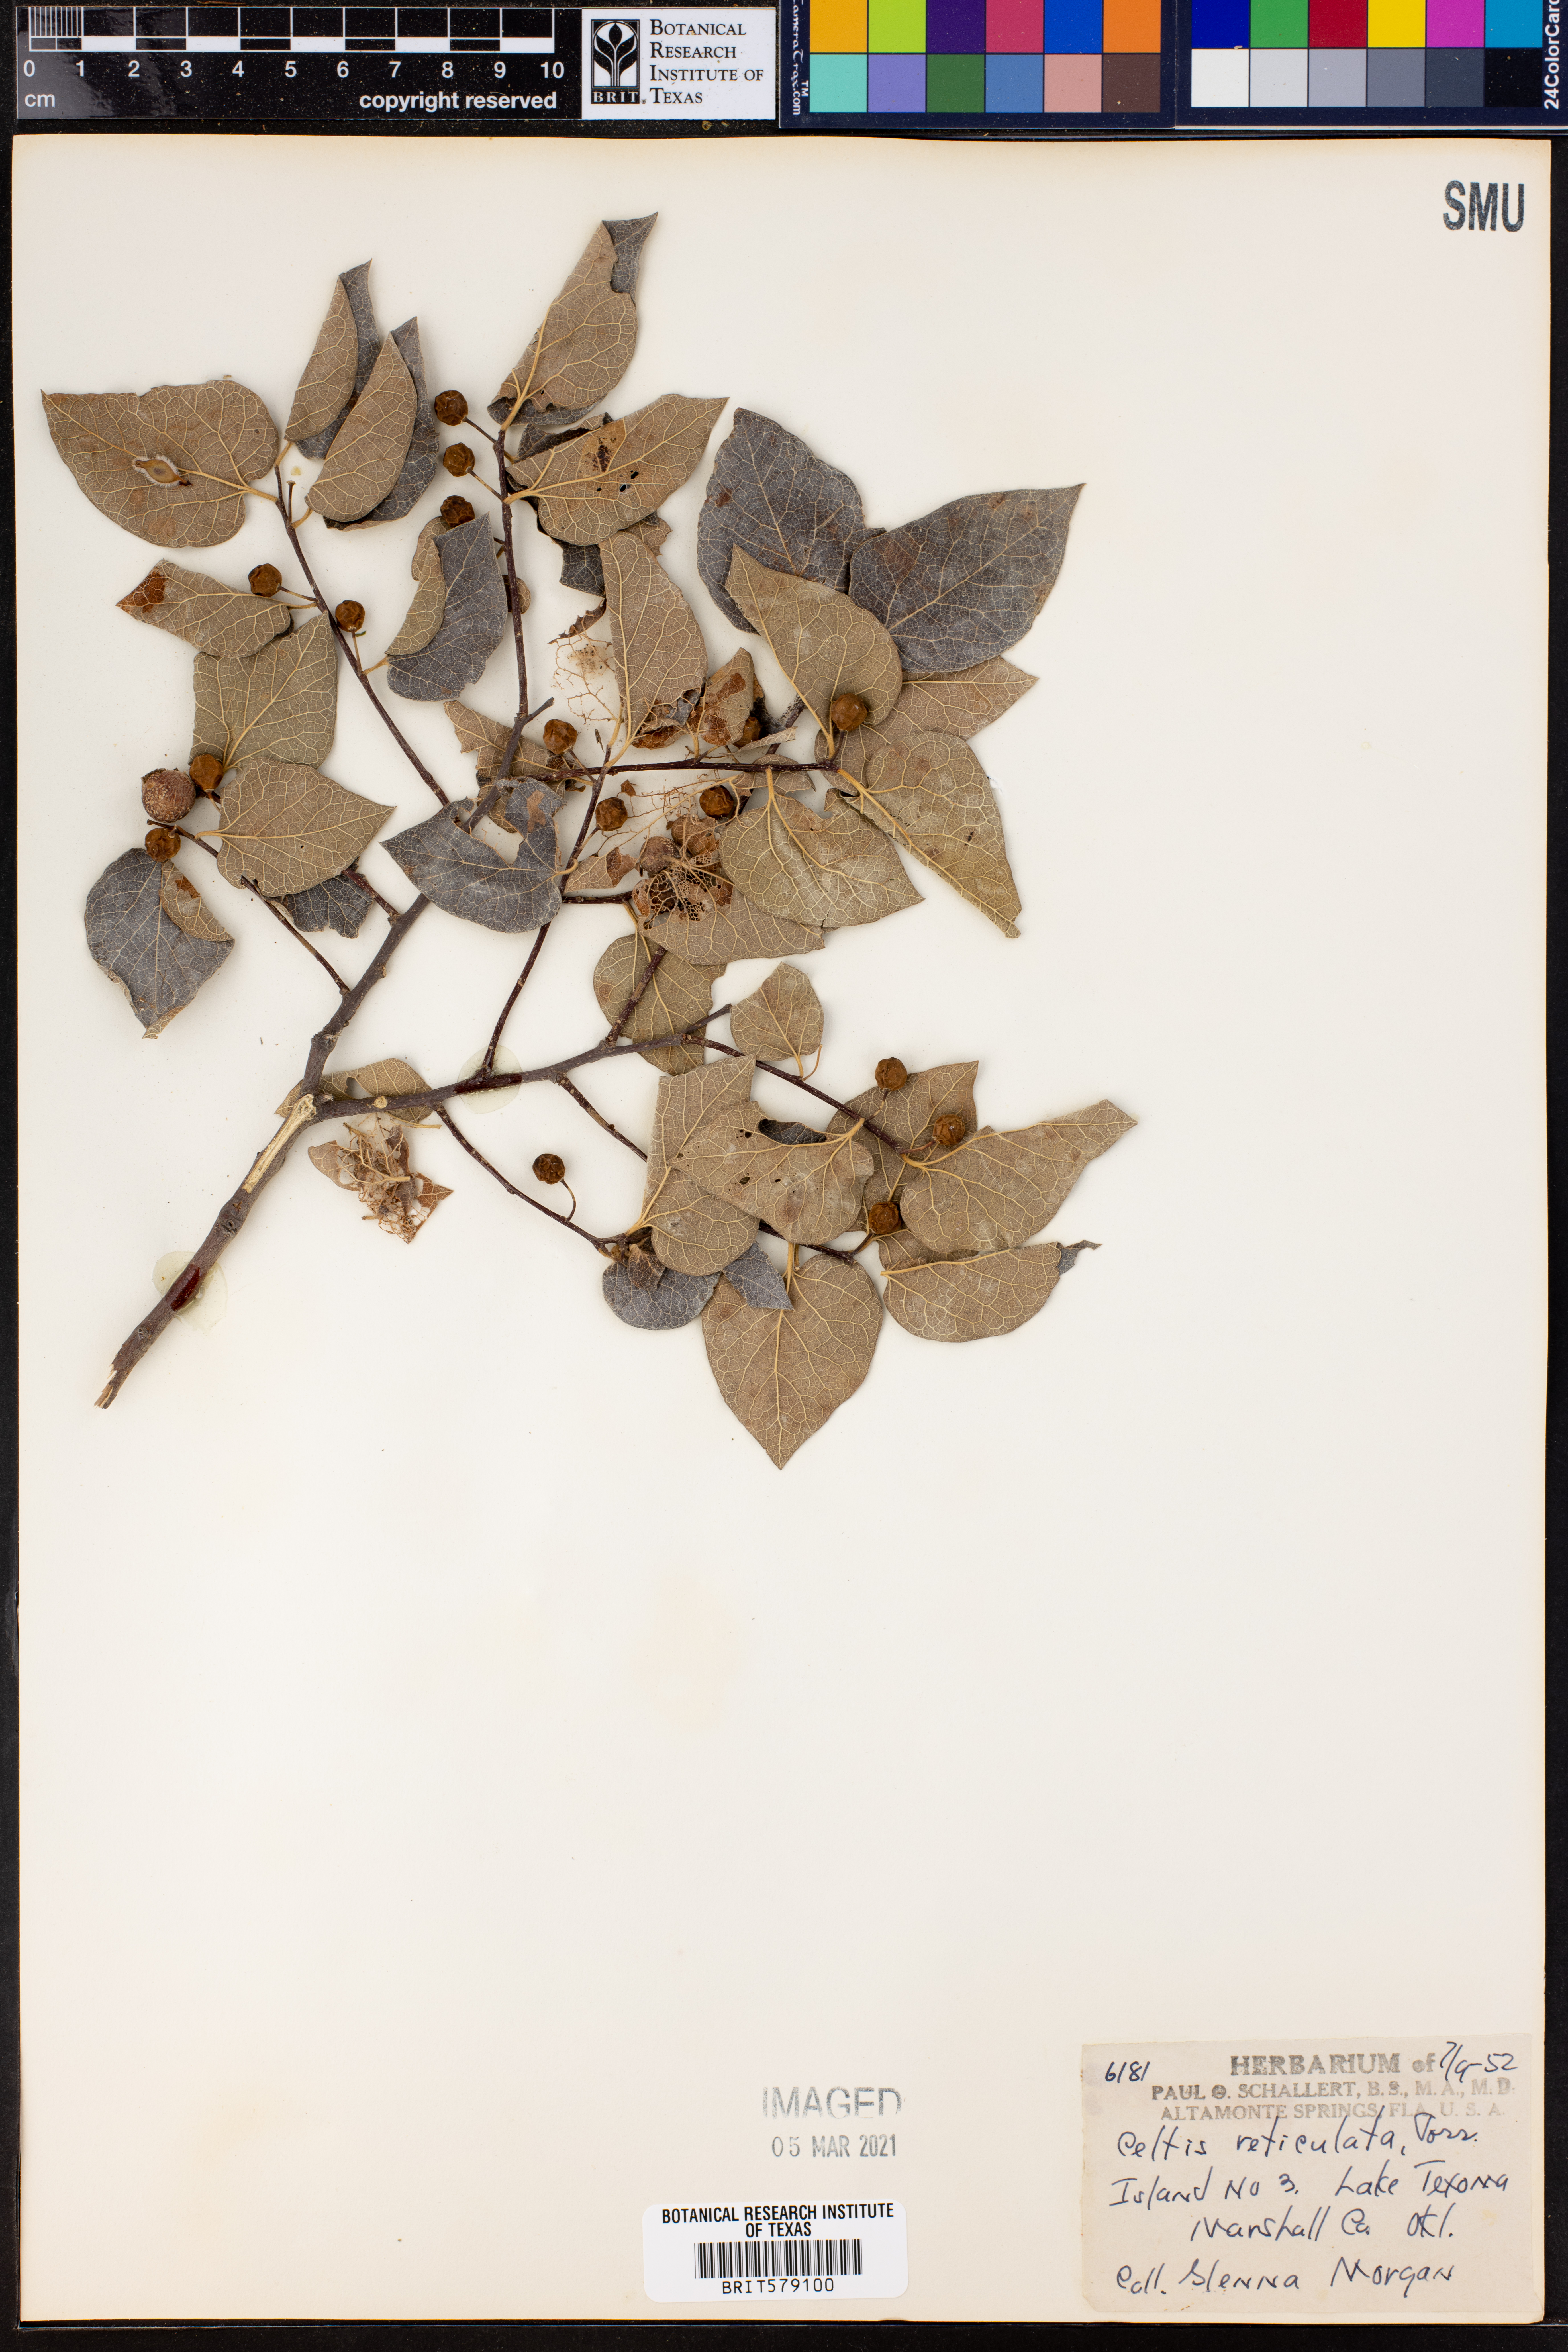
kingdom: Plantae
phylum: Tracheophyta
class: Magnoliopsida
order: Rosales
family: Cannabaceae
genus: Celtis
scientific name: Celtis reticulata
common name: Netleaf hackberry
